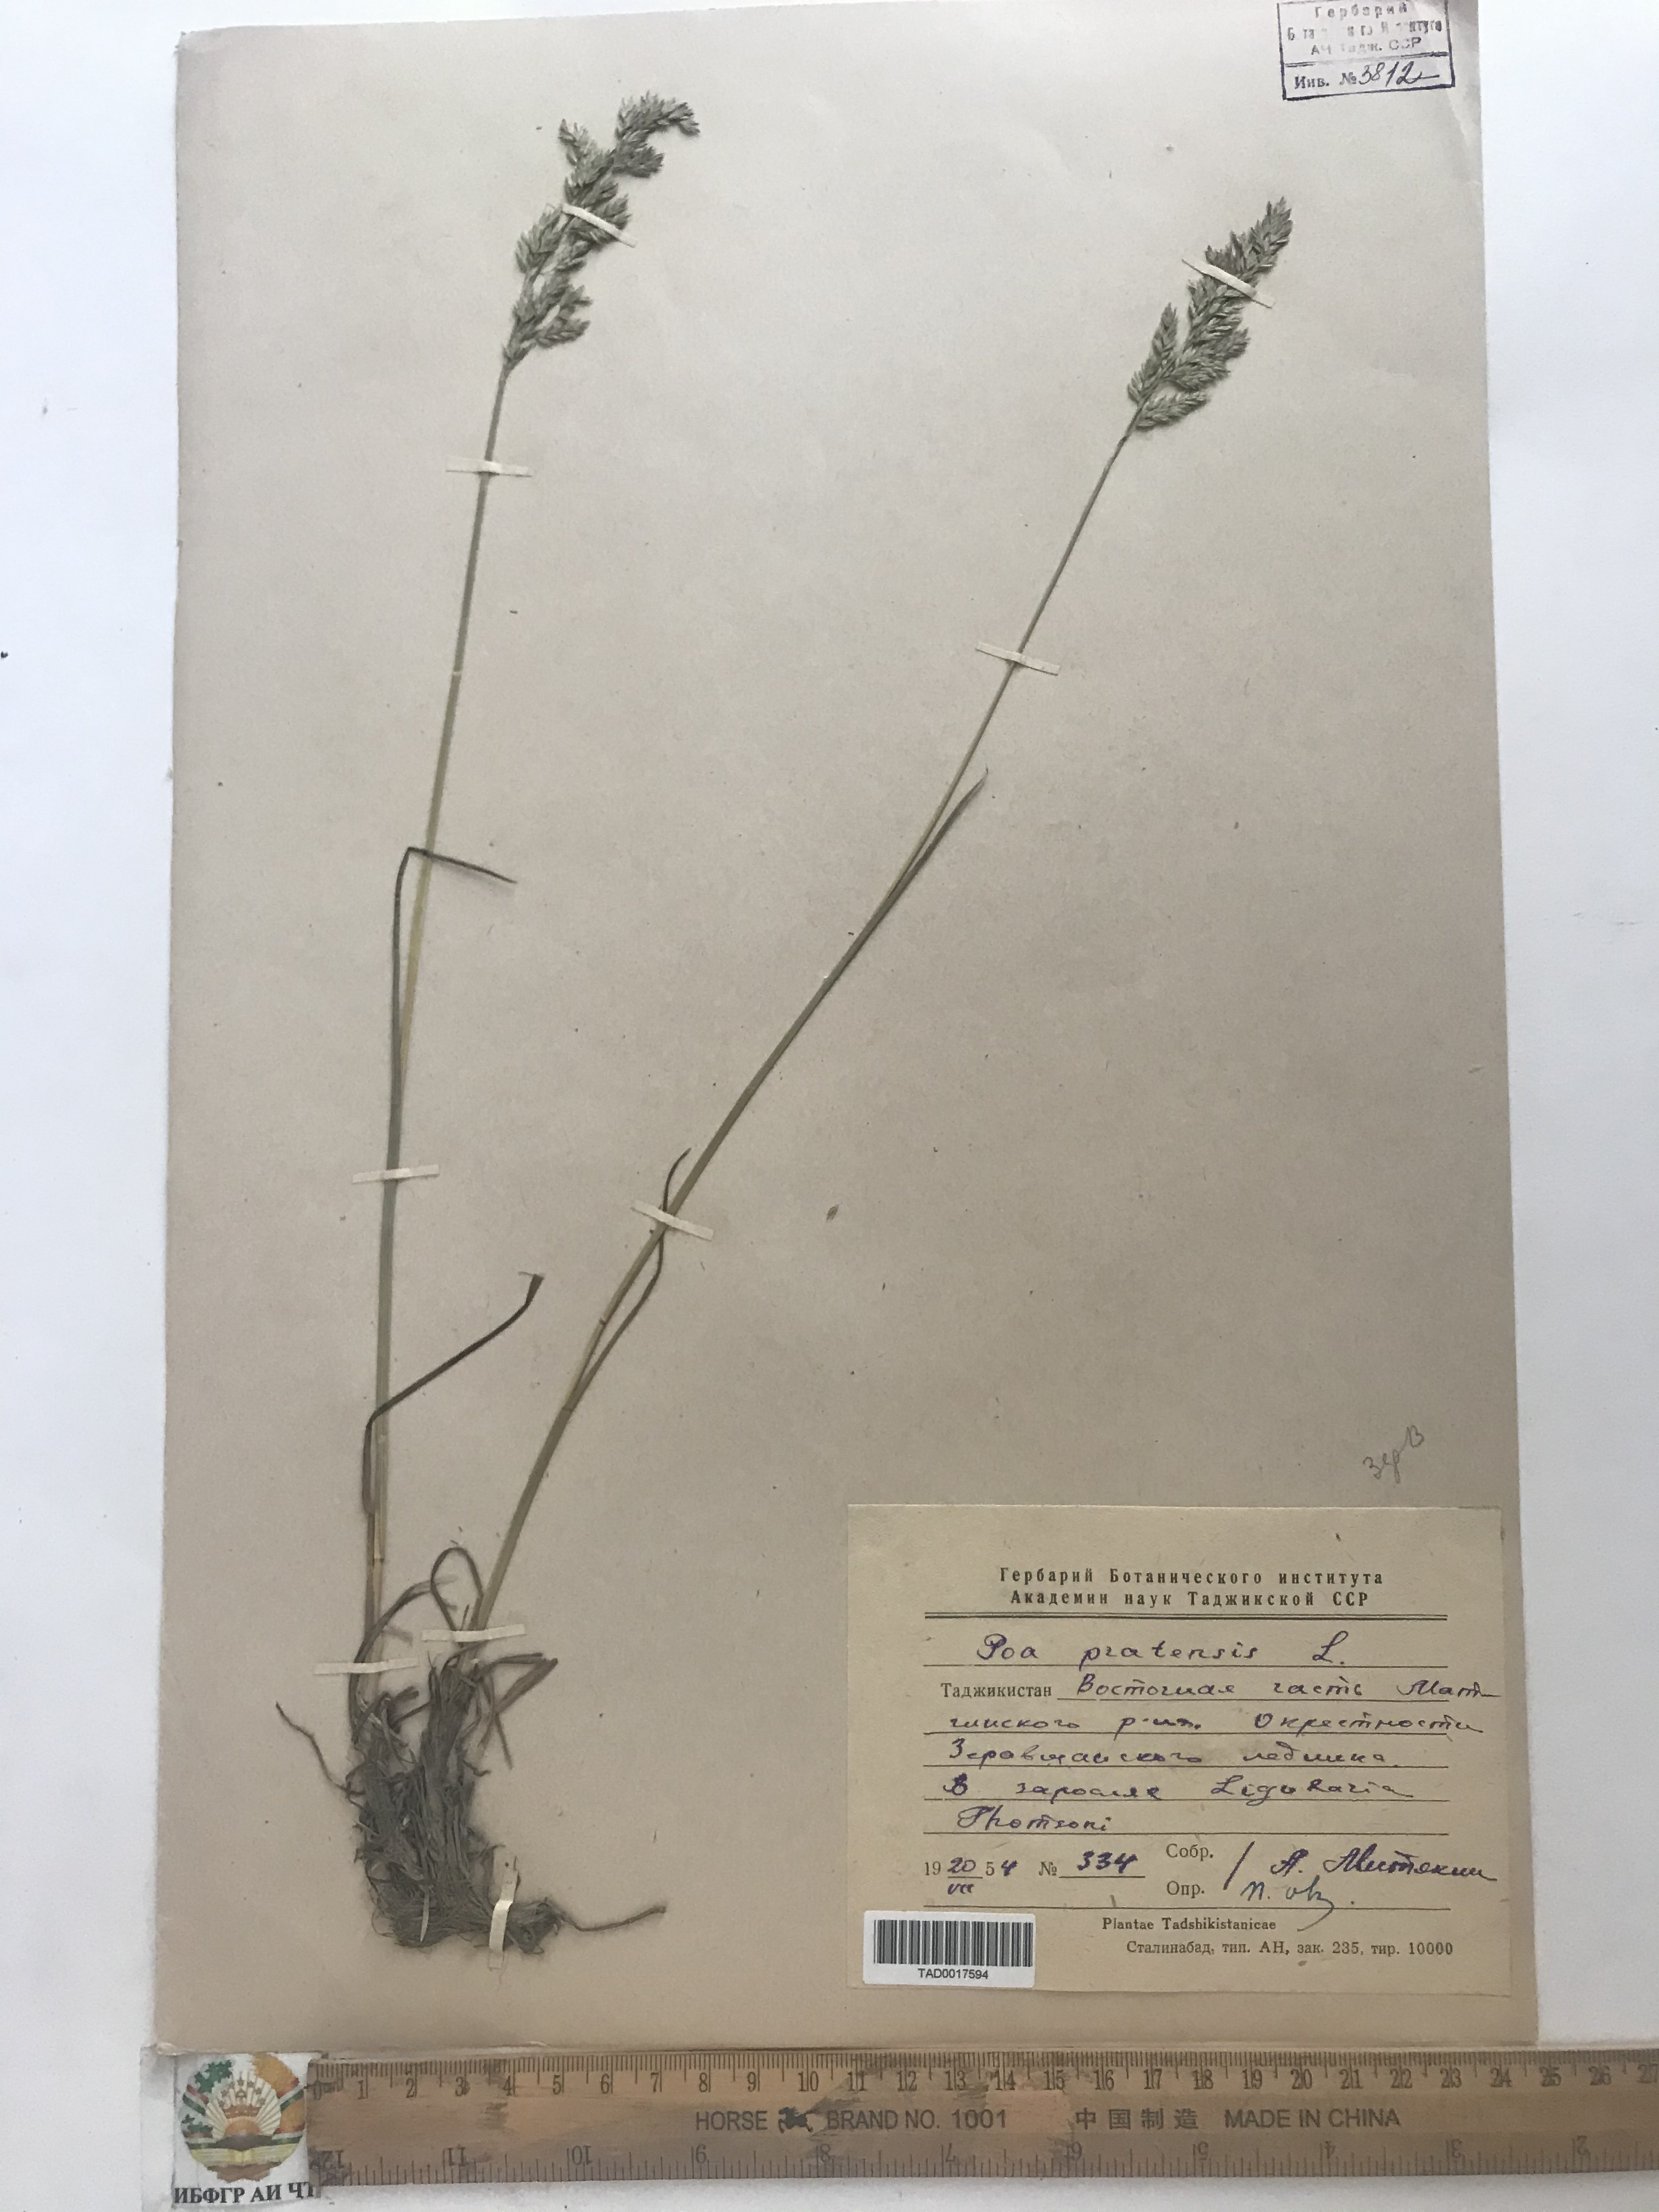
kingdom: Plantae
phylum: Tracheophyta
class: Liliopsida
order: Poales
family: Poaceae
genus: Poa
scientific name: Poa pratensis
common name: Kentucky bluegrass
